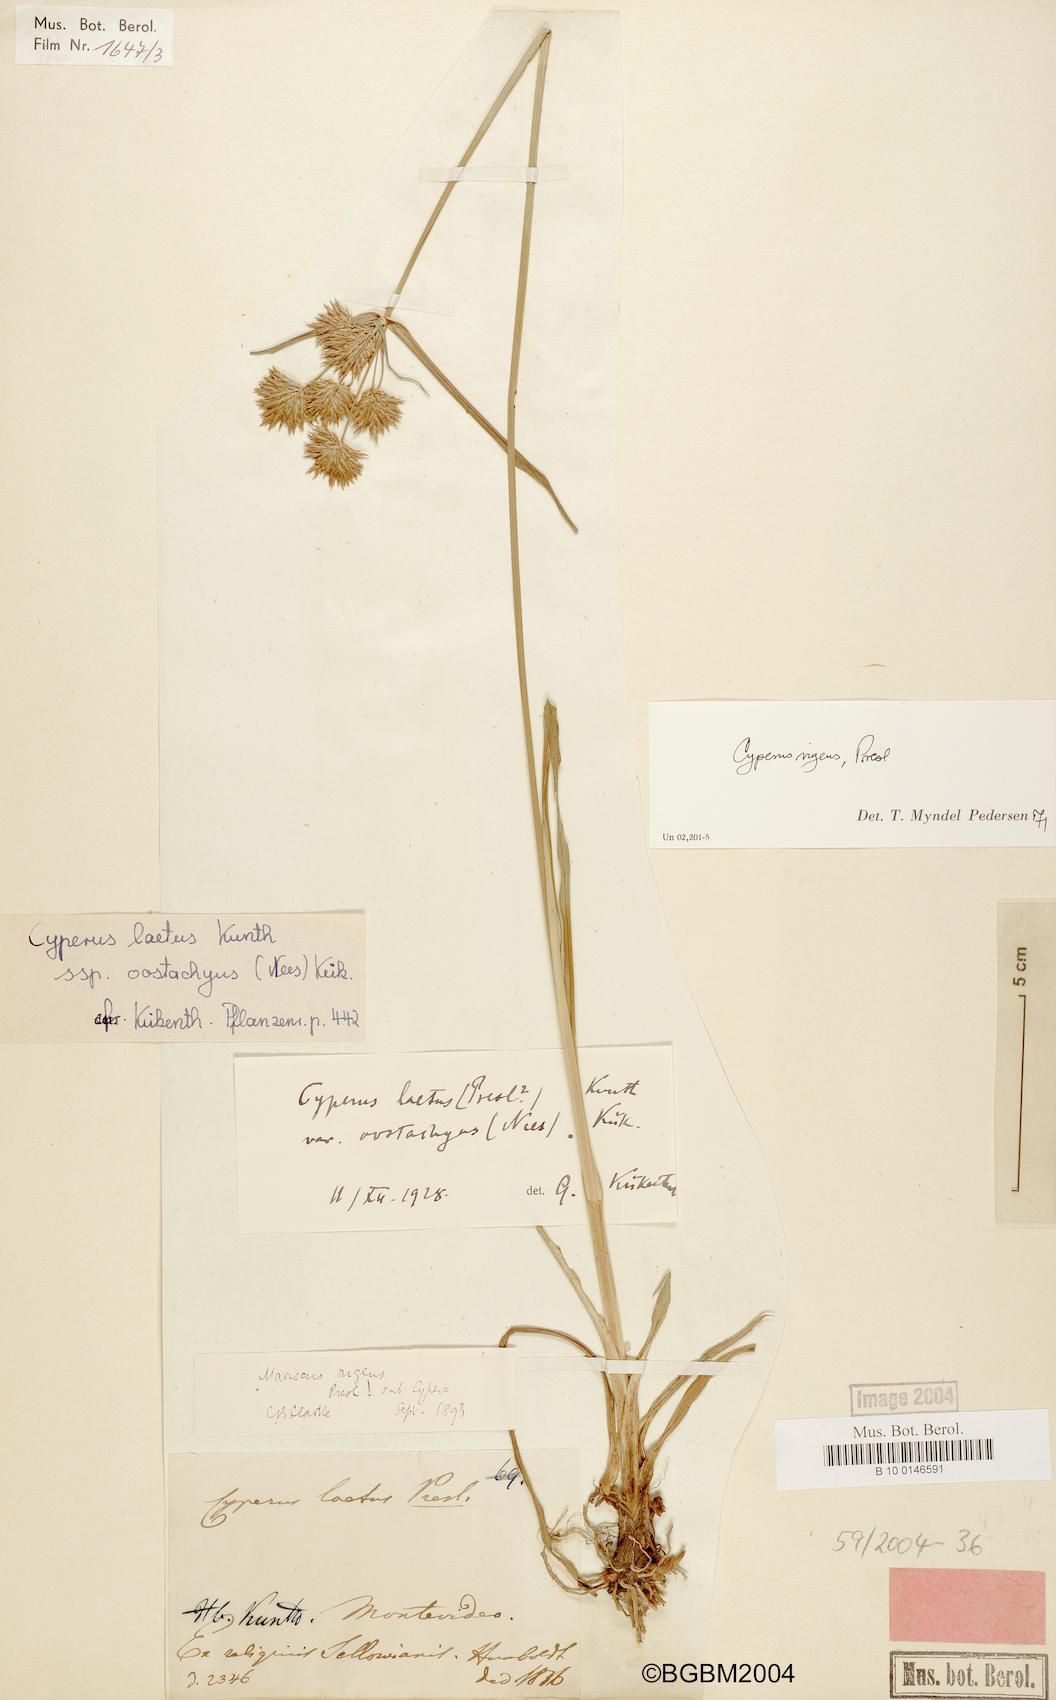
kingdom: Plantae
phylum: Tracheophyta
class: Liliopsida
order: Poales
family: Cyperaceae
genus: Cyperus
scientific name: Cyperus rigens
